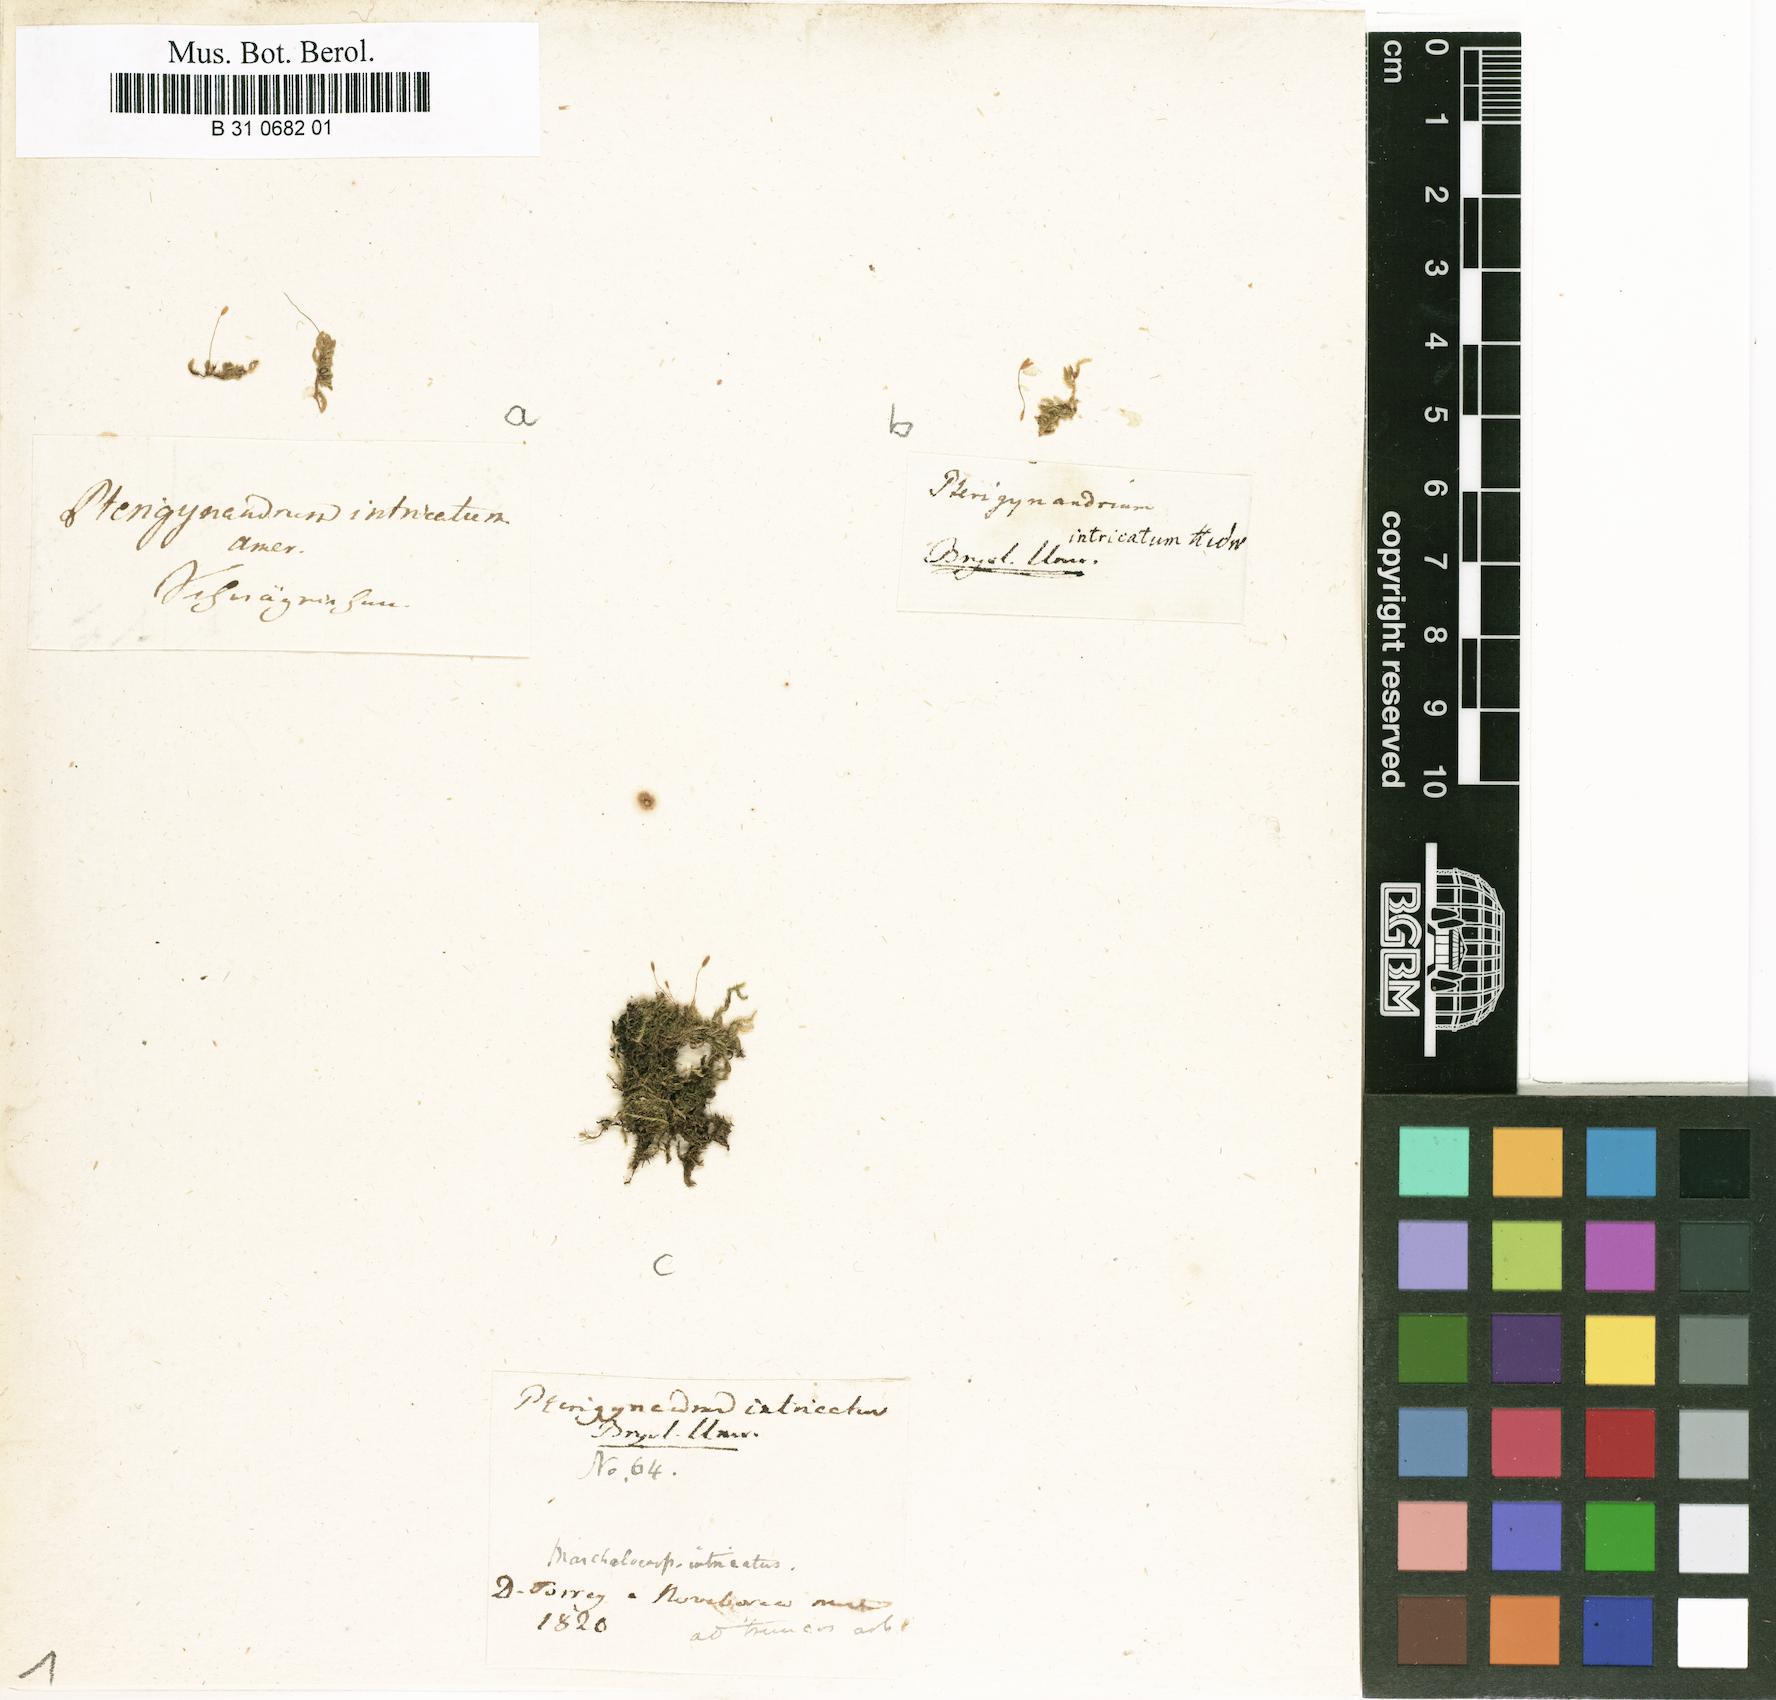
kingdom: Plantae
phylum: Bryophyta
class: Bryopsida
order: Hypnales
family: Pylaisiaceae
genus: Pylaisia
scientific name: Pylaisia intricata
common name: Intricate pylaisia
